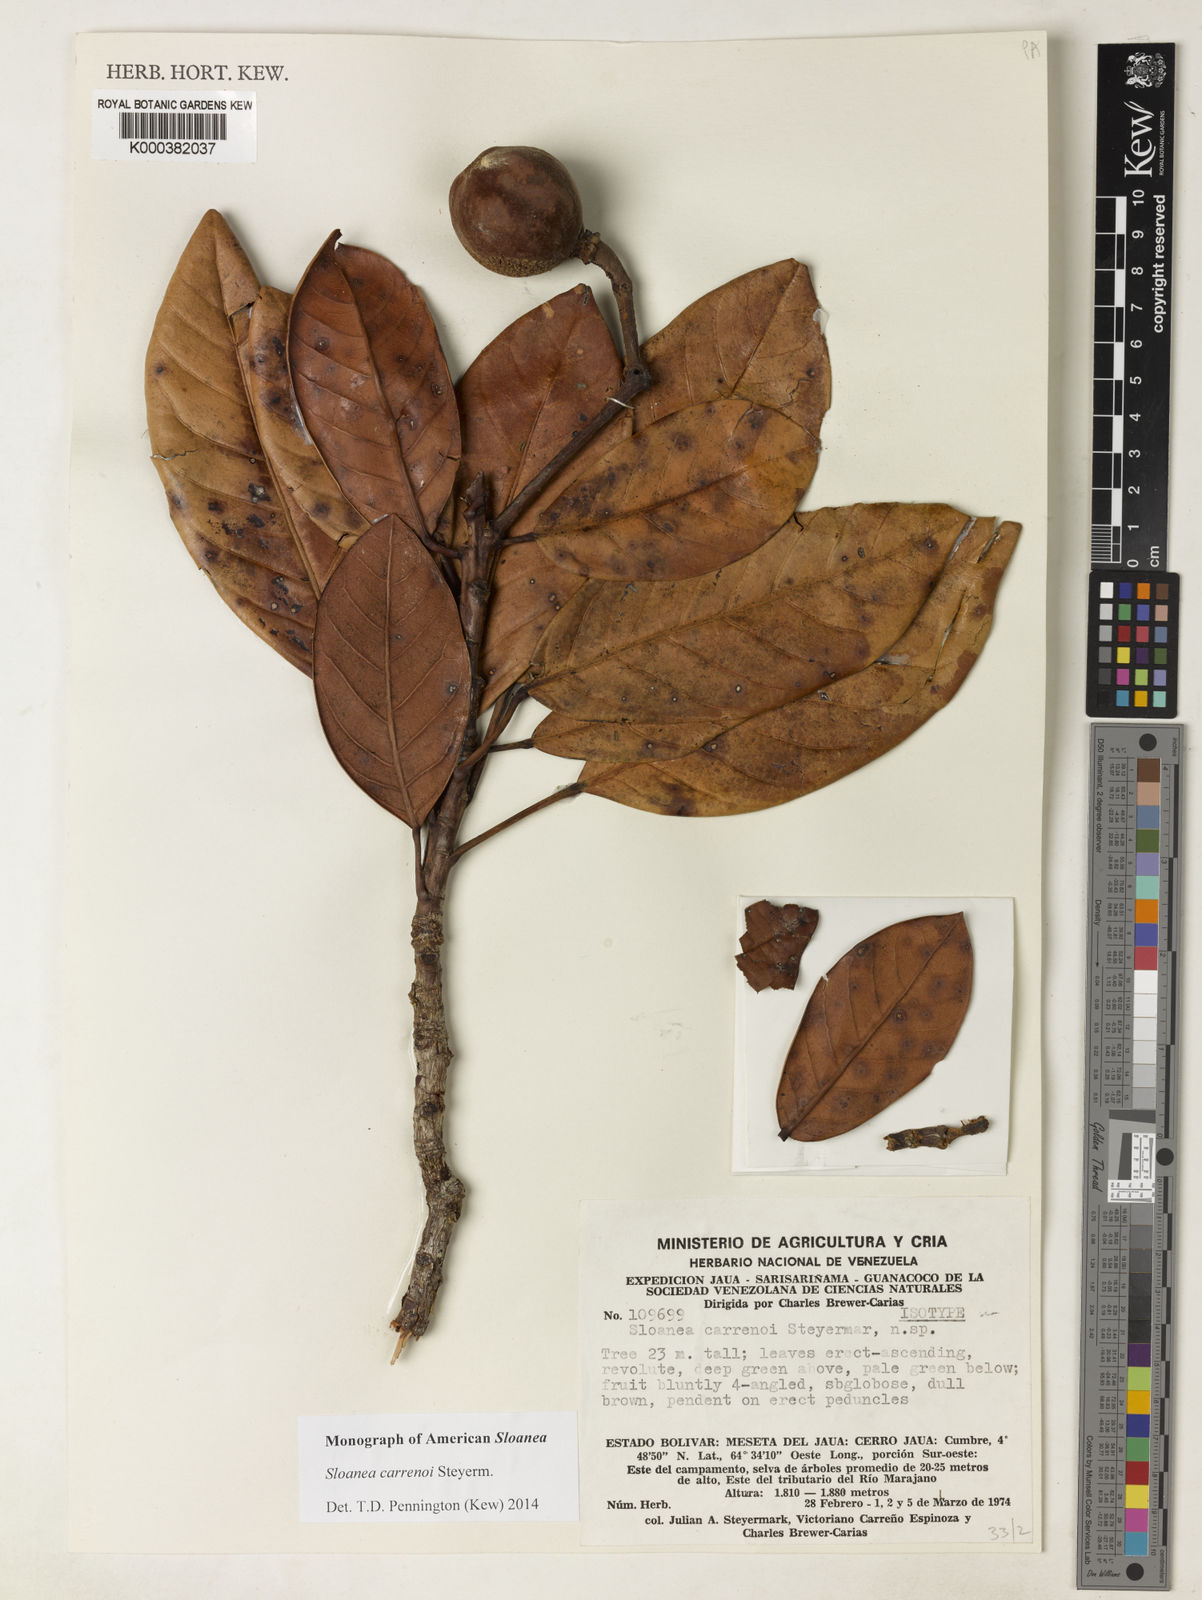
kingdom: Plantae
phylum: Tracheophyta
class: Magnoliopsida
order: Oxalidales
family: Elaeocarpaceae
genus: Sloanea
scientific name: Sloanea carrenoi
